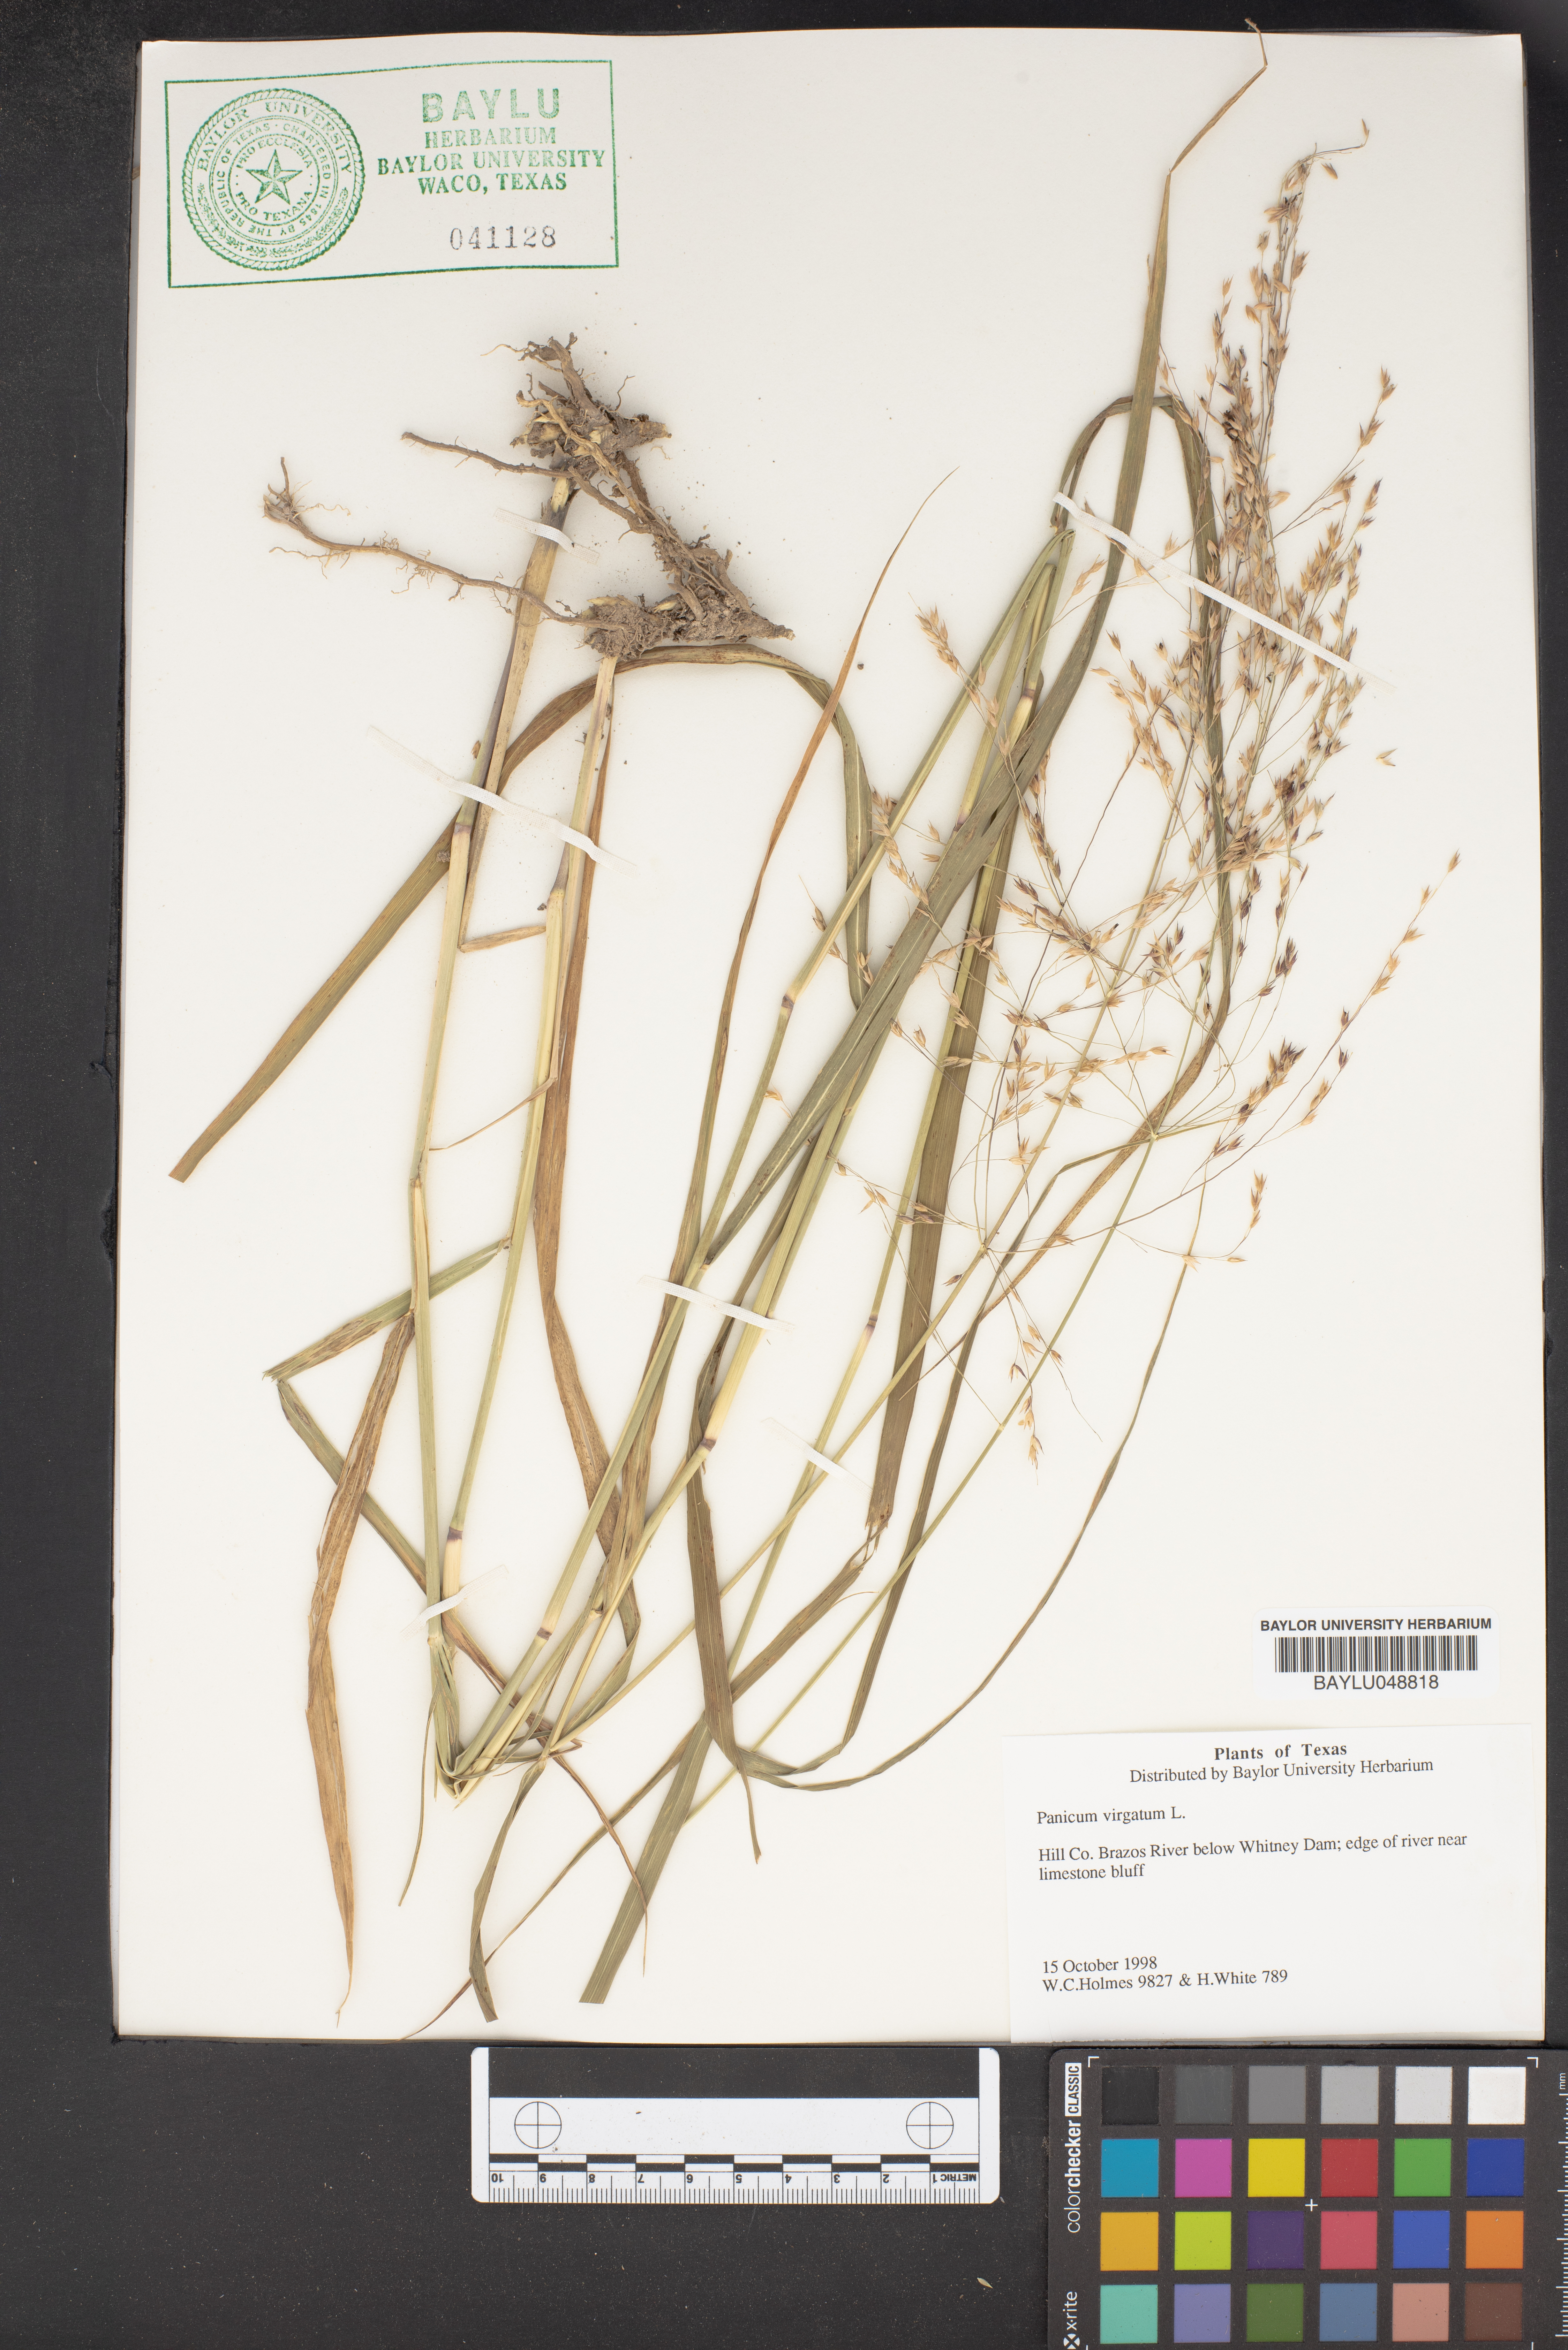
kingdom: Plantae
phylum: Tracheophyta
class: Liliopsida
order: Poales
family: Poaceae
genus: Panicum
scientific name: Panicum virgatum
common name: Switchgrass
